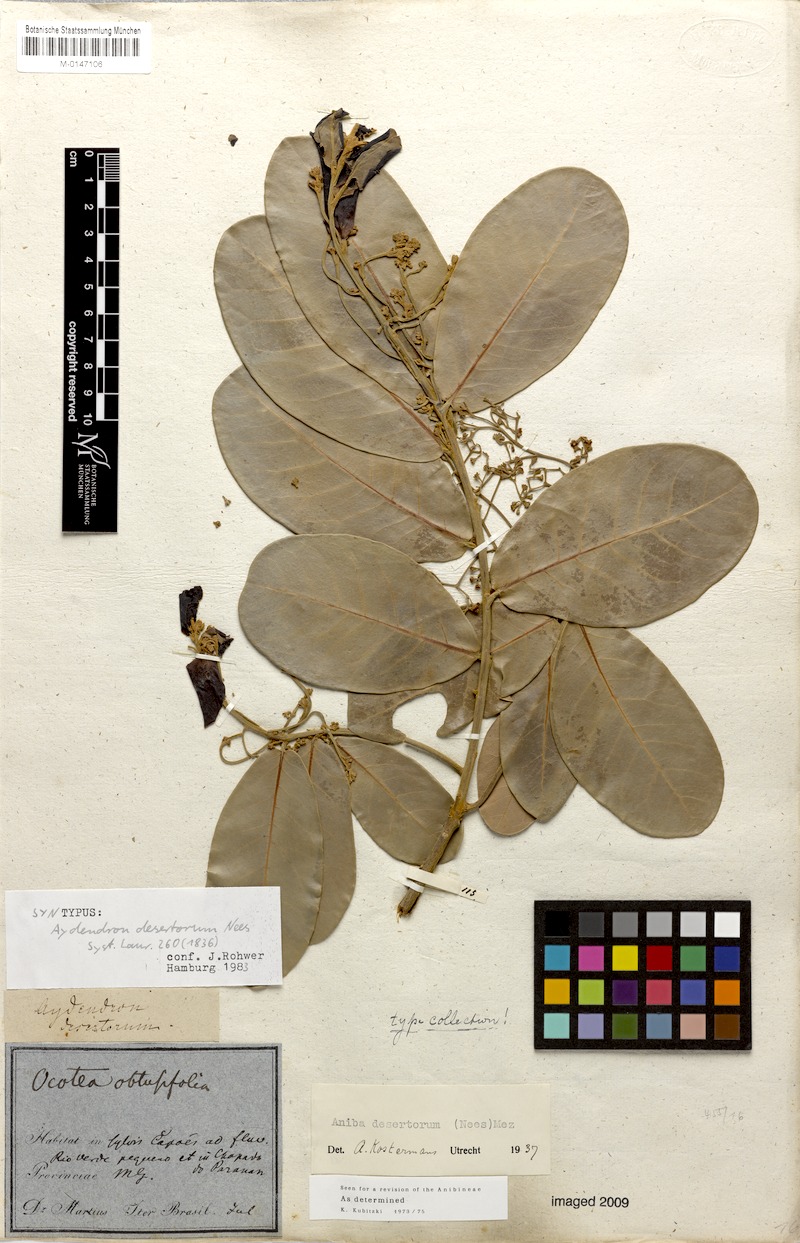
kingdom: Plantae
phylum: Tracheophyta
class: Magnoliopsida
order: Laurales
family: Lauraceae
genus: Aniba
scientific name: Aniba desertorum
